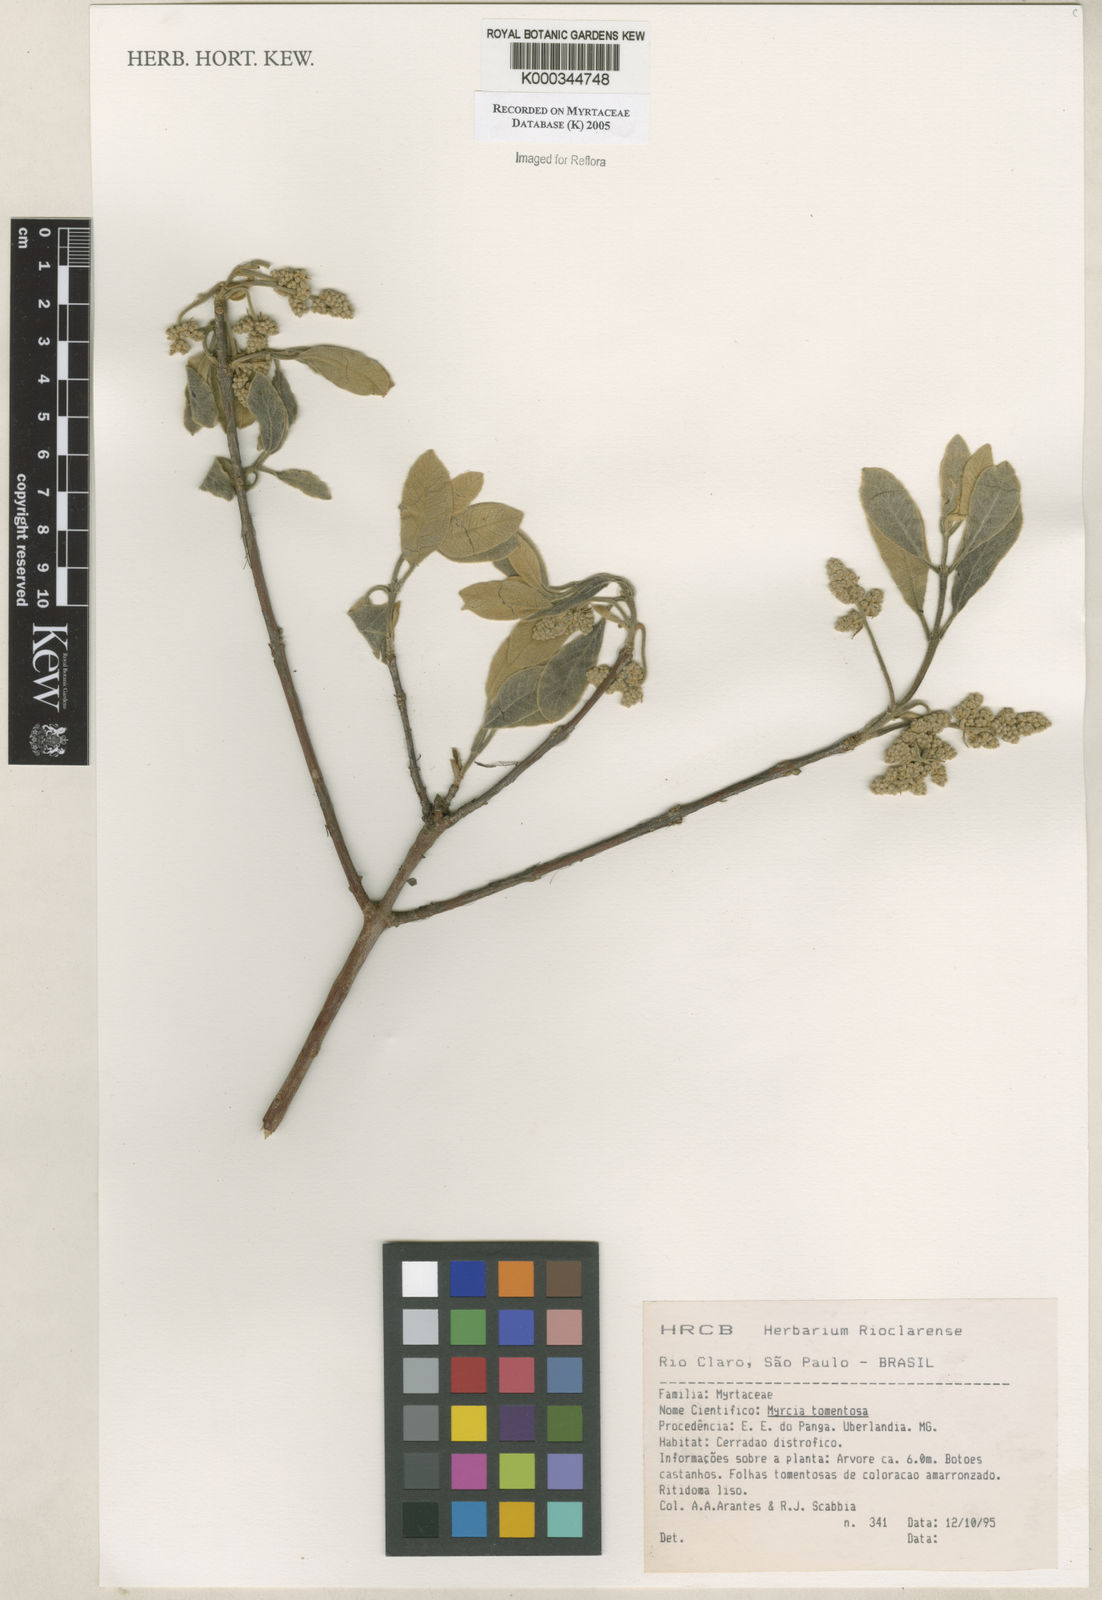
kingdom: Plantae
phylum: Tracheophyta
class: Magnoliopsida
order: Myrtales
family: Myrtaceae
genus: Myrcia
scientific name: Myrcia tomentosa
